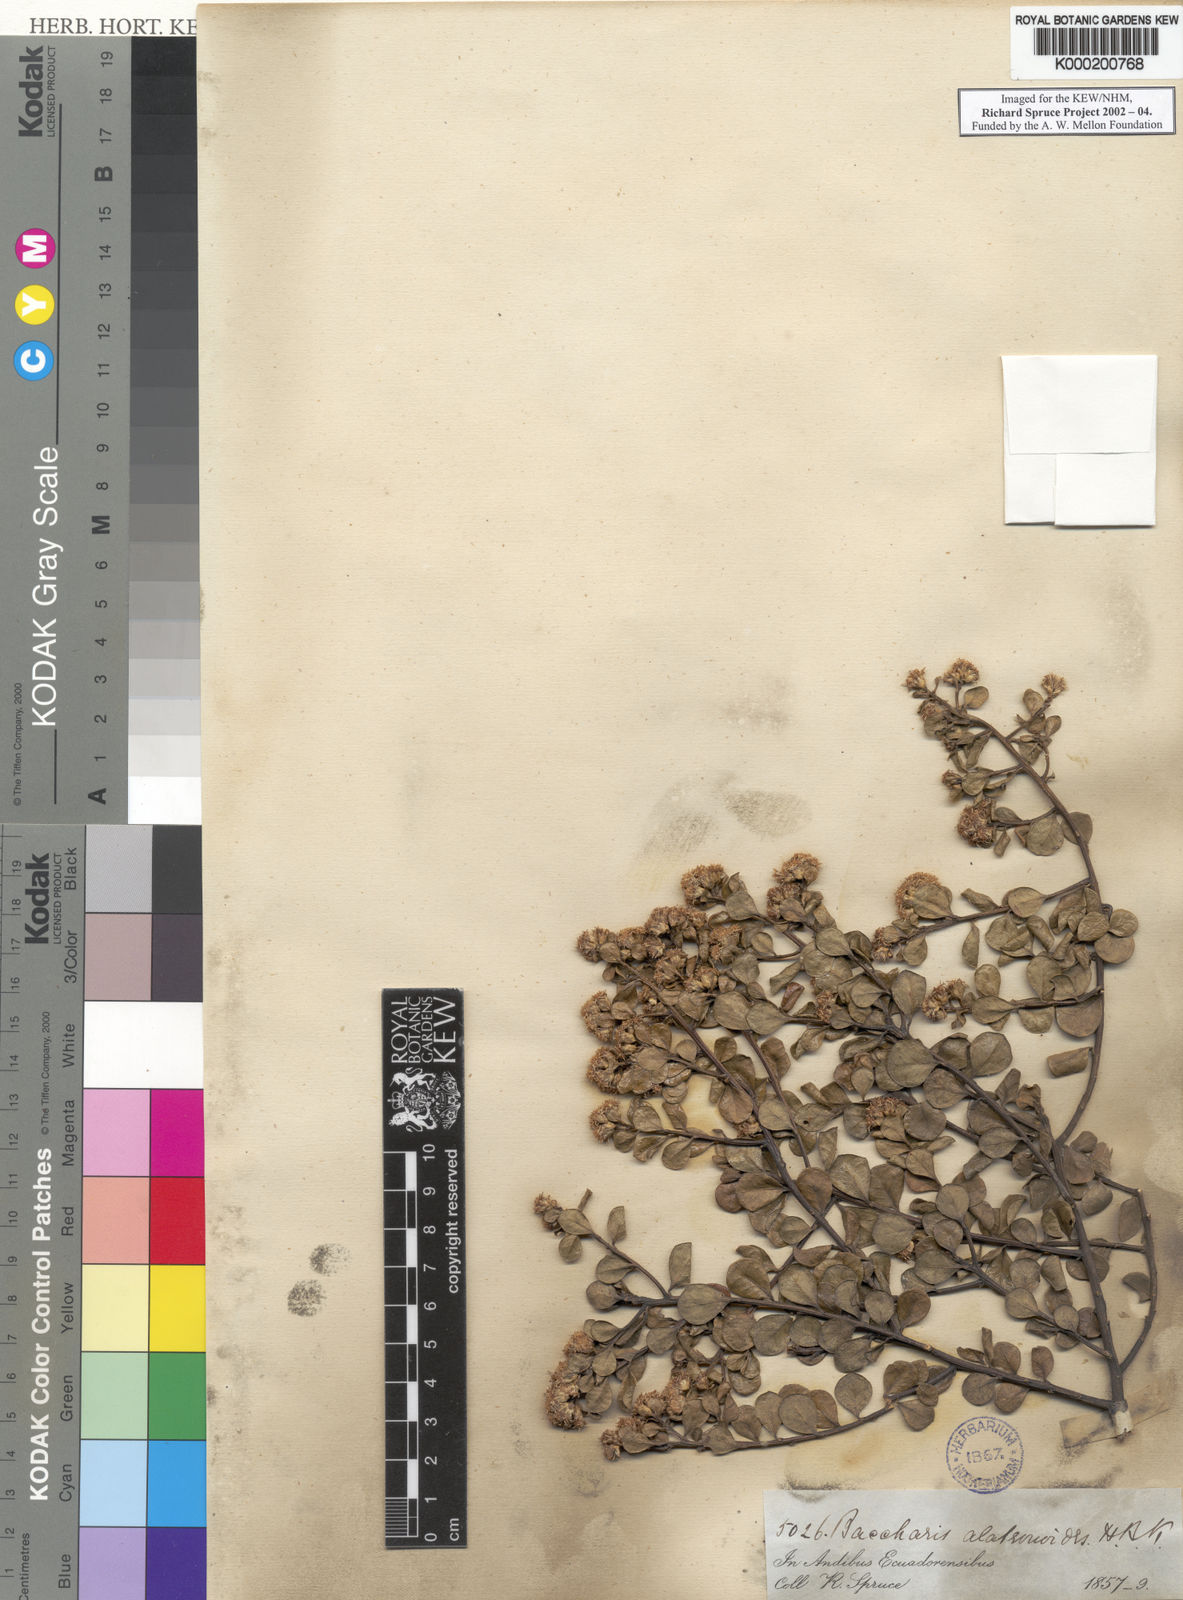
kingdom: Plantae
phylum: Tracheophyta
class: Magnoliopsida
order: Asterales
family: Asteraceae
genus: Baccharis
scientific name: Baccharis alaternoides
